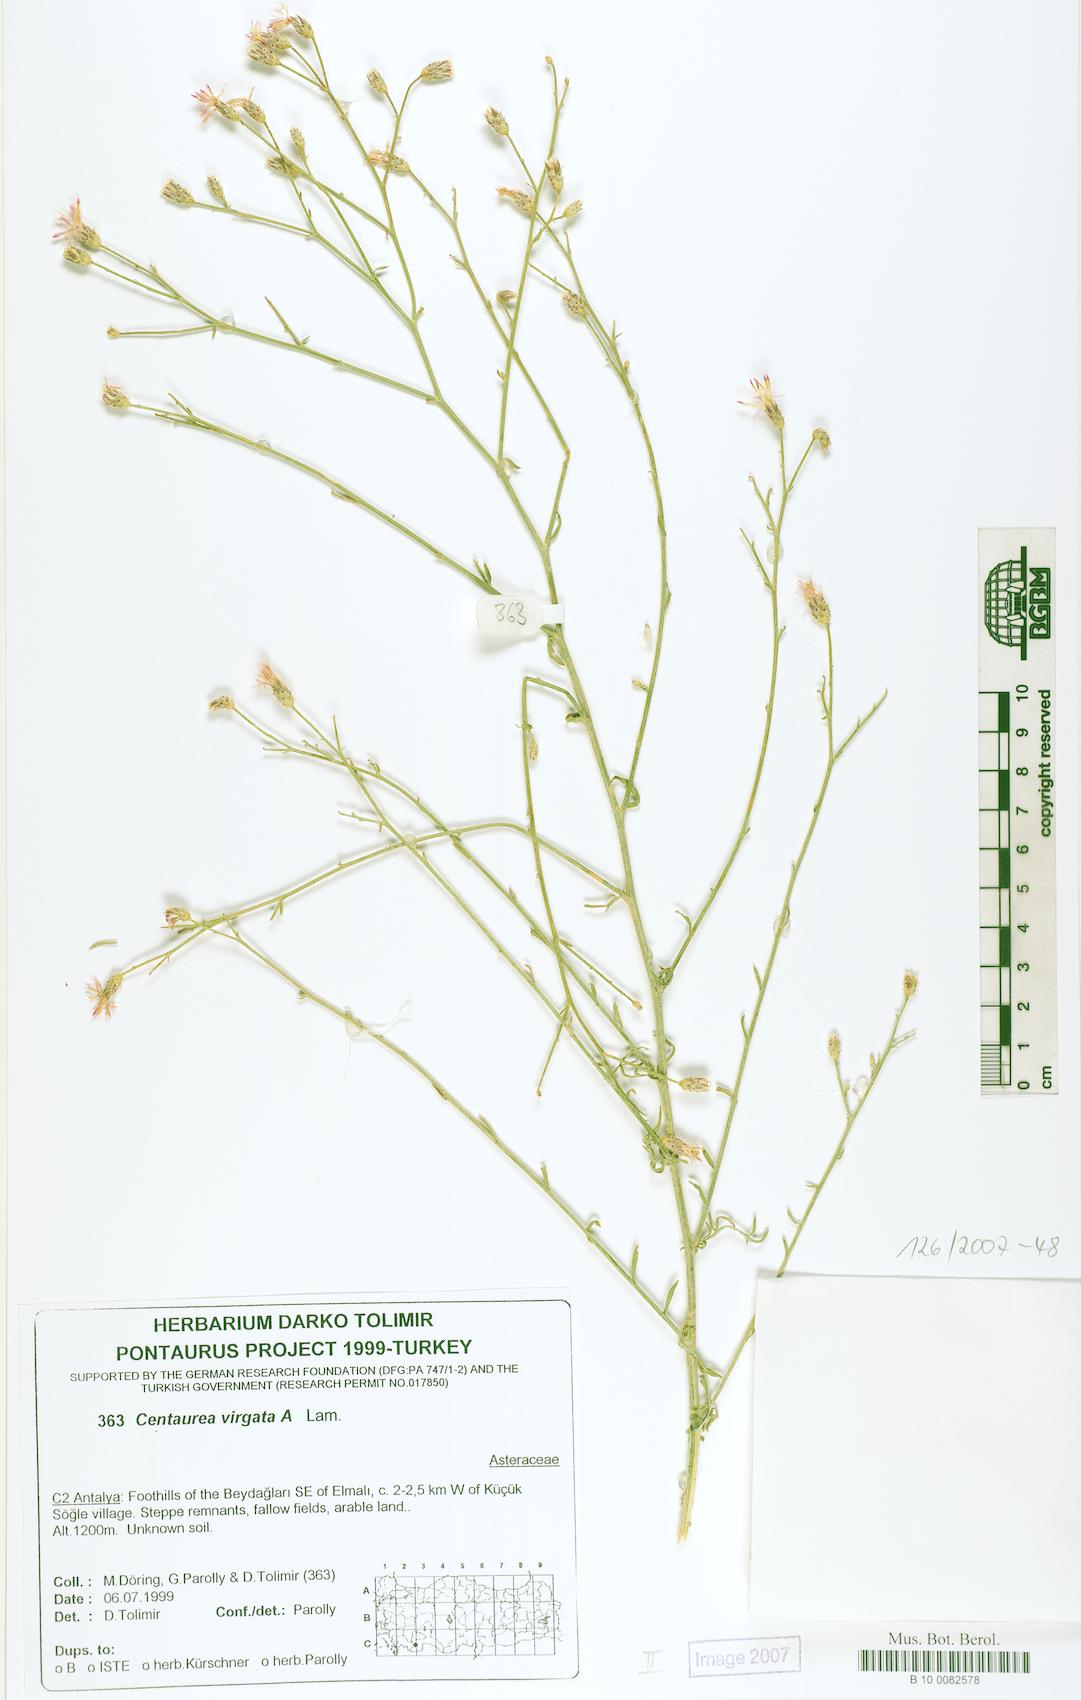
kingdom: Plantae
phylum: Tracheophyta
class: Magnoliopsida
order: Asterales
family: Asteraceae
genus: Centaurea
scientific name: Centaurea virgata
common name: Squarrose knapweed
